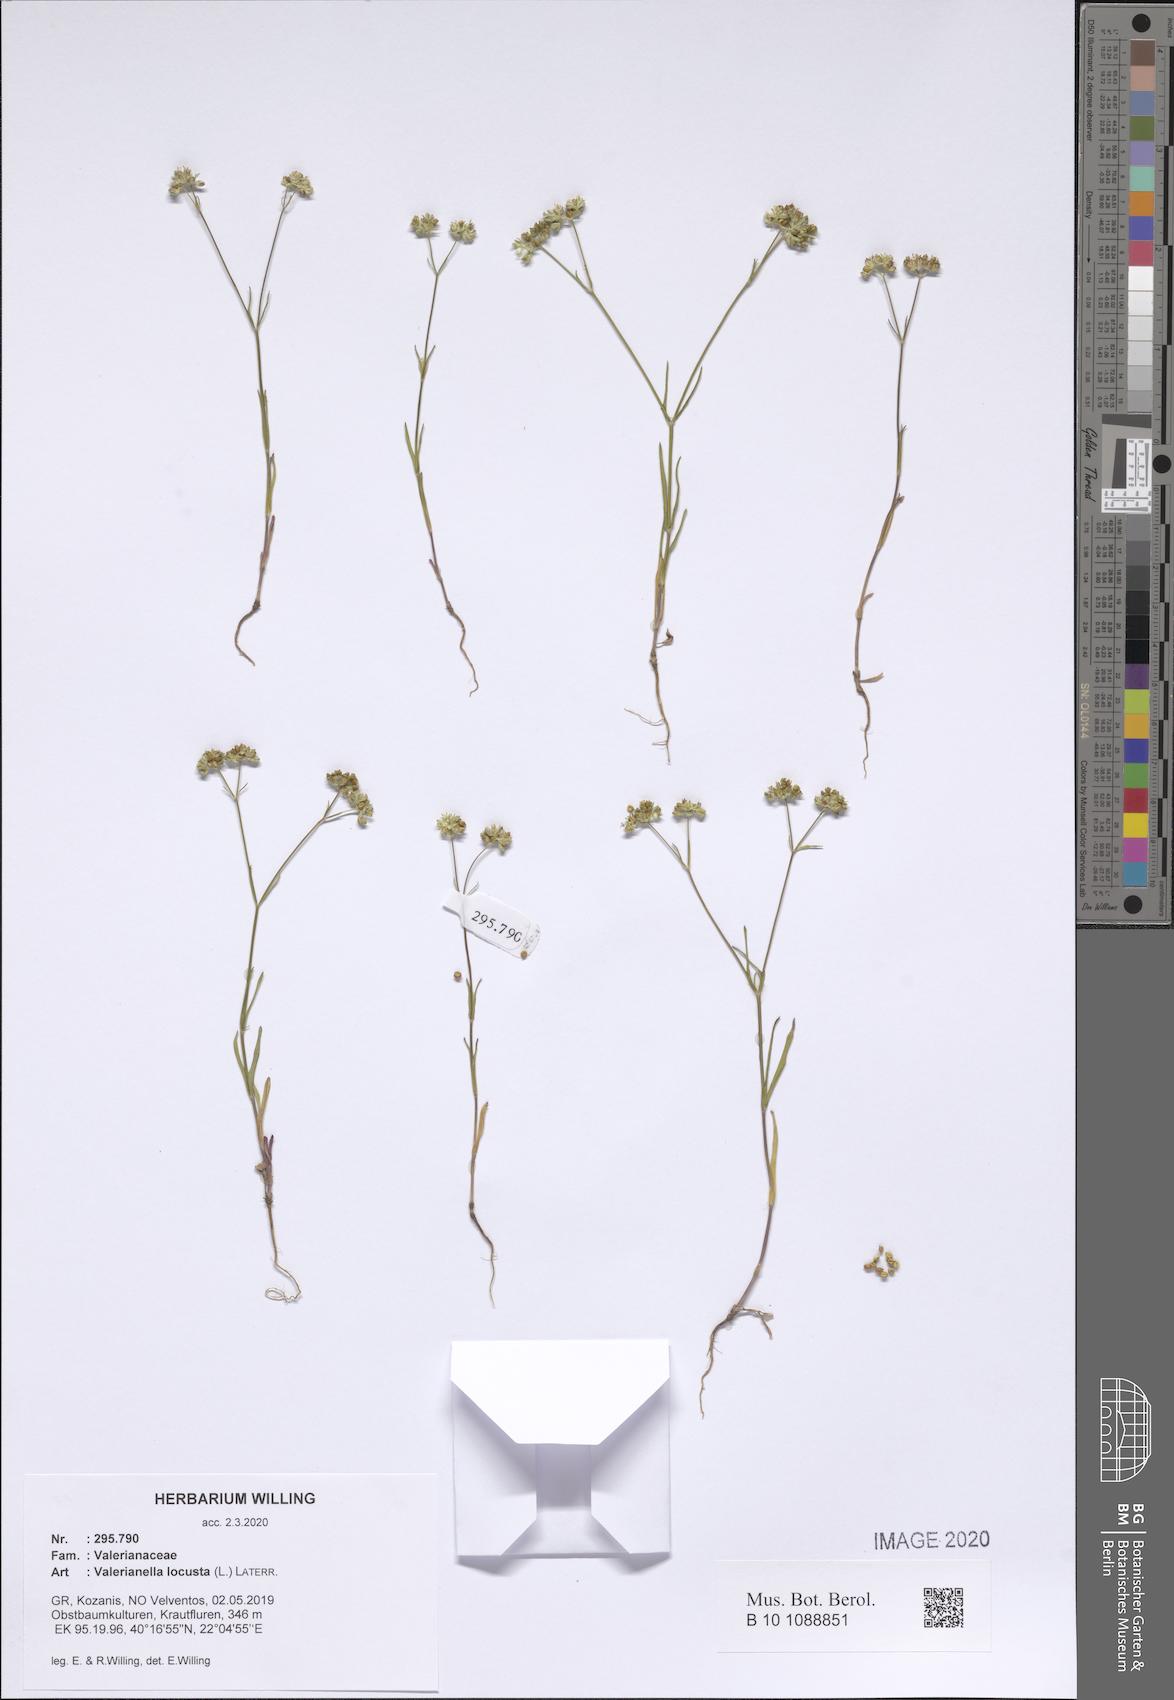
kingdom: Plantae
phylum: Tracheophyta
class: Magnoliopsida
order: Dipsacales
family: Caprifoliaceae
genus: Valerianella
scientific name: Valerianella locusta
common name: Common cornsalad
